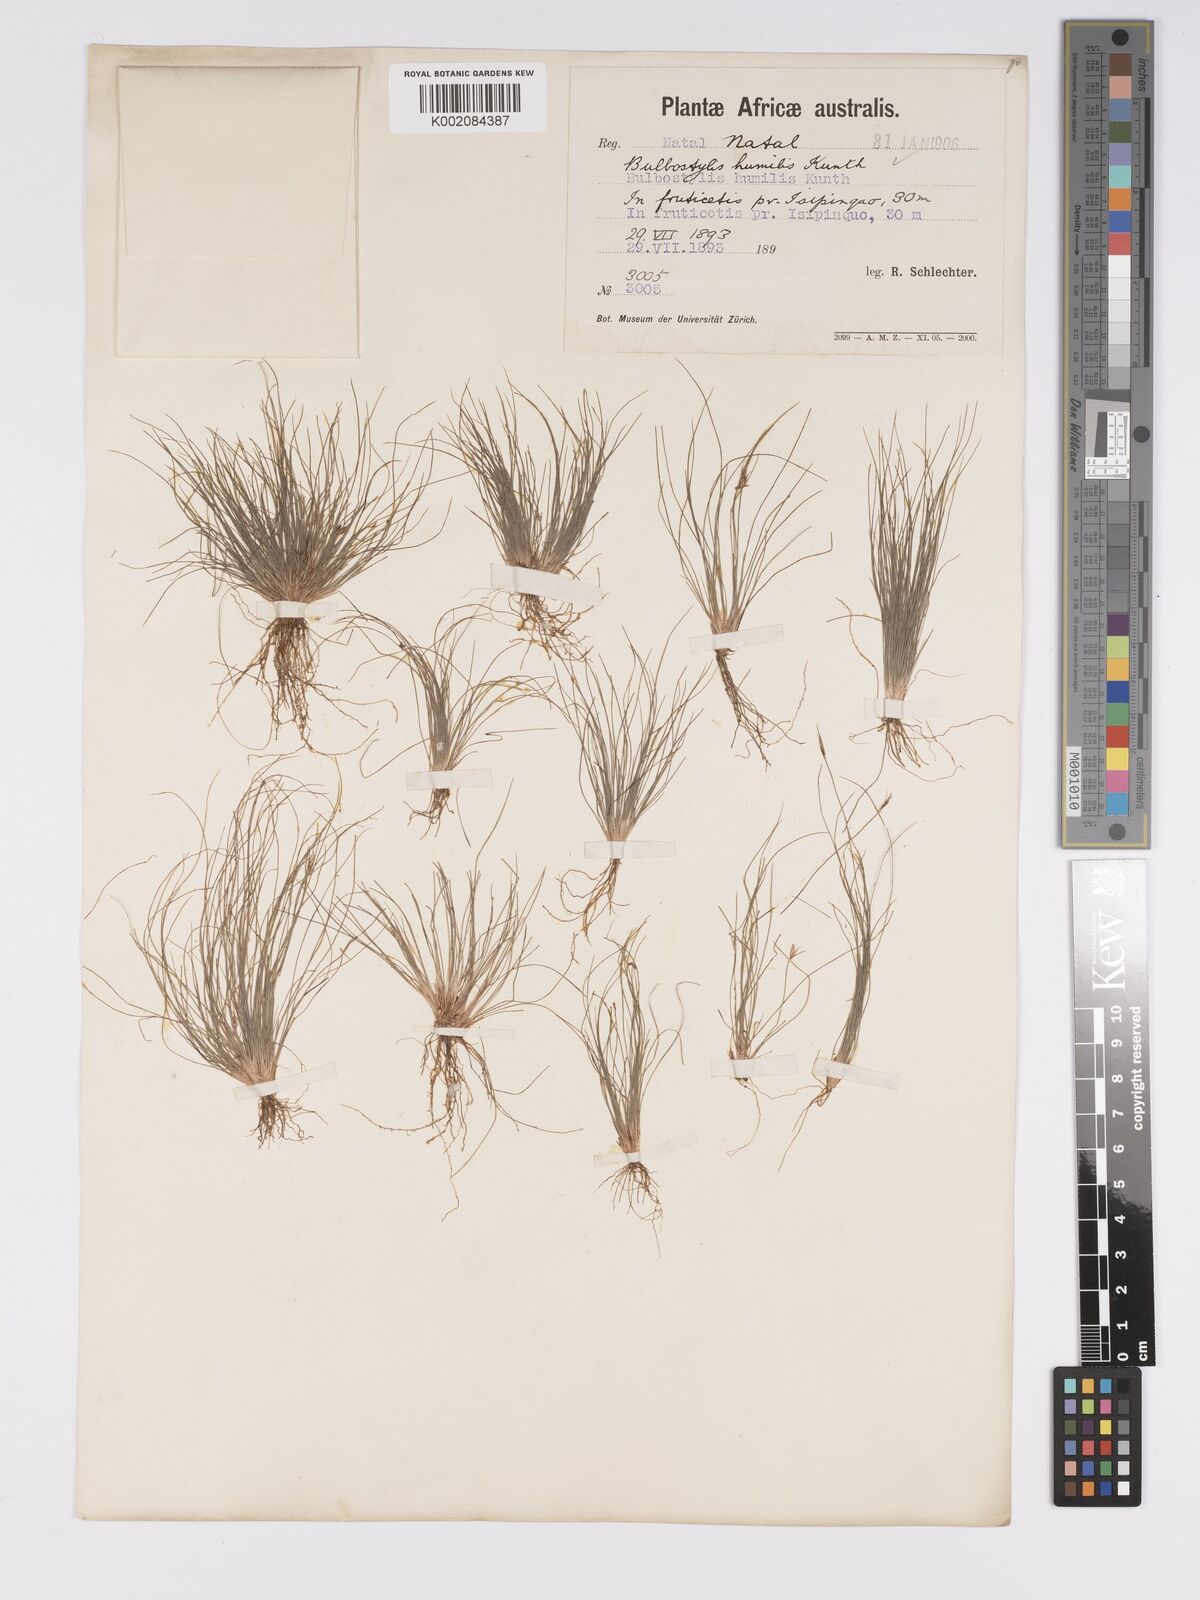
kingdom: Plantae
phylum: Tracheophyta
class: Liliopsida
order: Poales
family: Cyperaceae
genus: Bulbostylis
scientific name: Bulbostylis humilis
